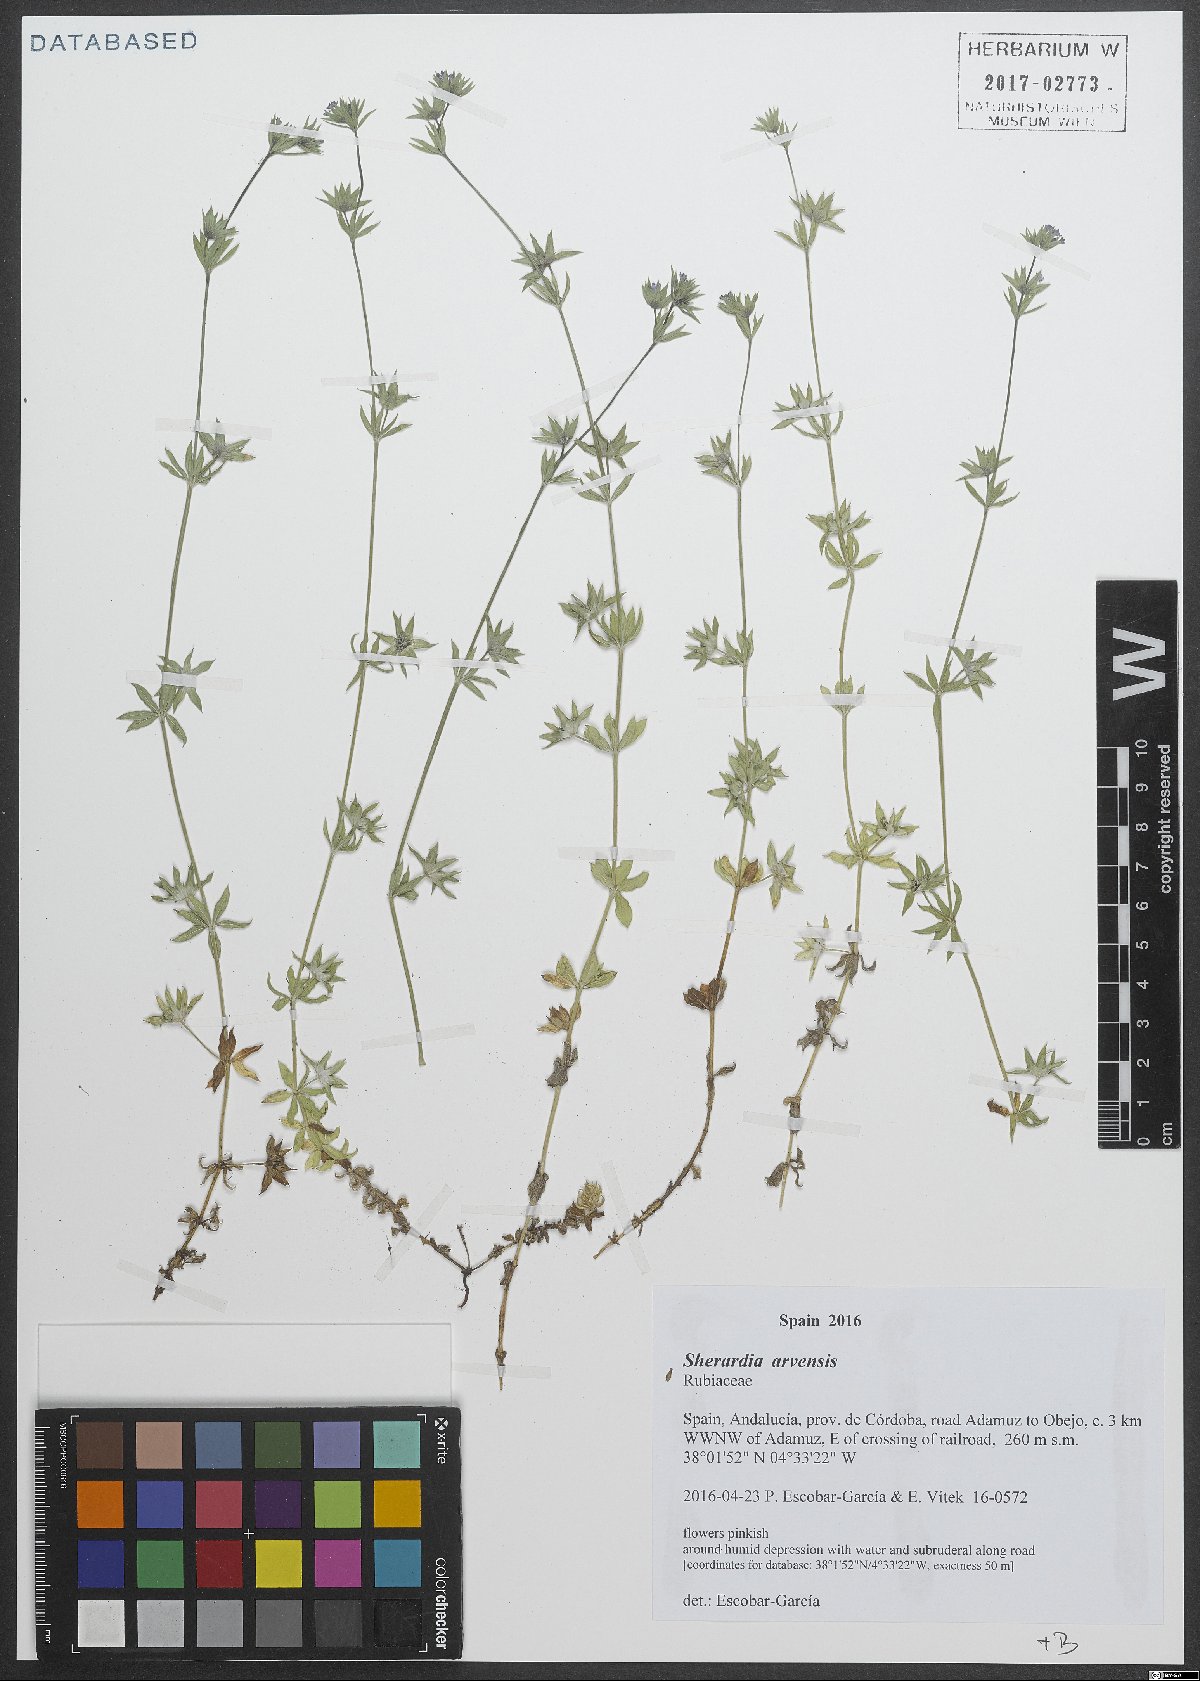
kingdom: Plantae
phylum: Tracheophyta
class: Magnoliopsida
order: Gentianales
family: Rubiaceae
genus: Sherardia
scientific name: Sherardia arvensis
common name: Field madder
